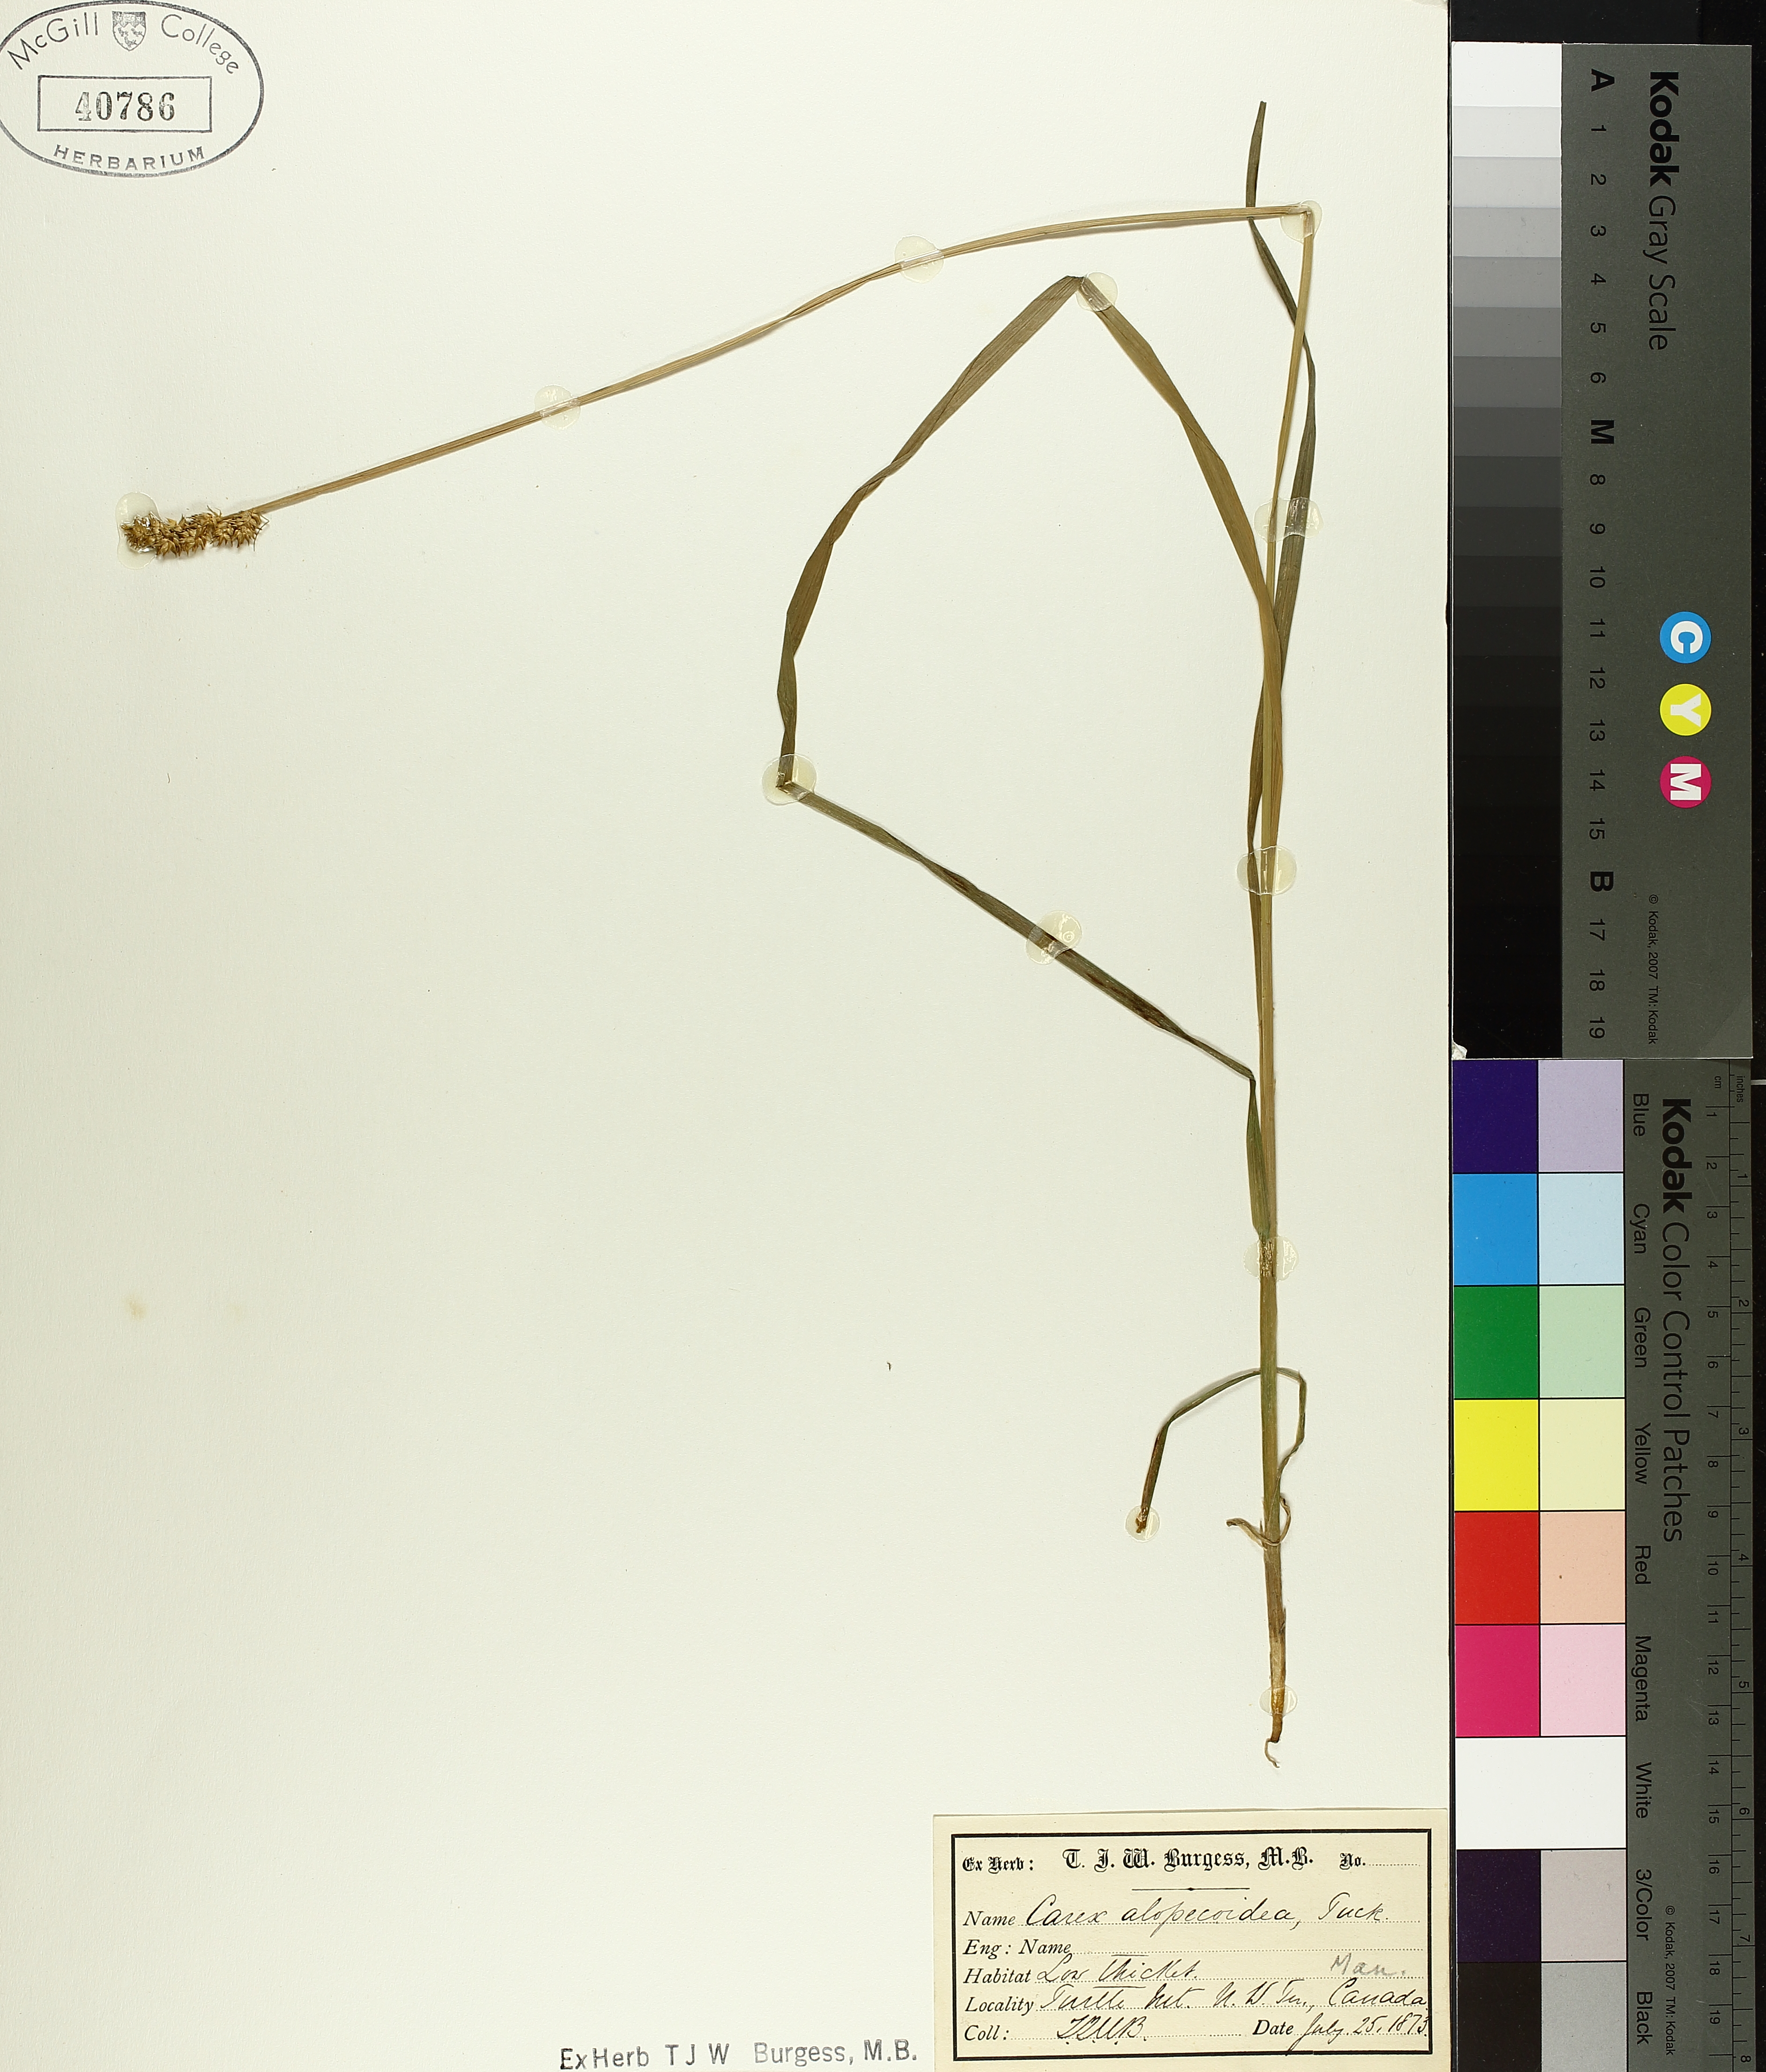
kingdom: Plantae
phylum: Tracheophyta
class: Liliopsida
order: Poales
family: Cyperaceae
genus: Carex
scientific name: Carex alopecoidea
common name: Brown-headed fox sedge
